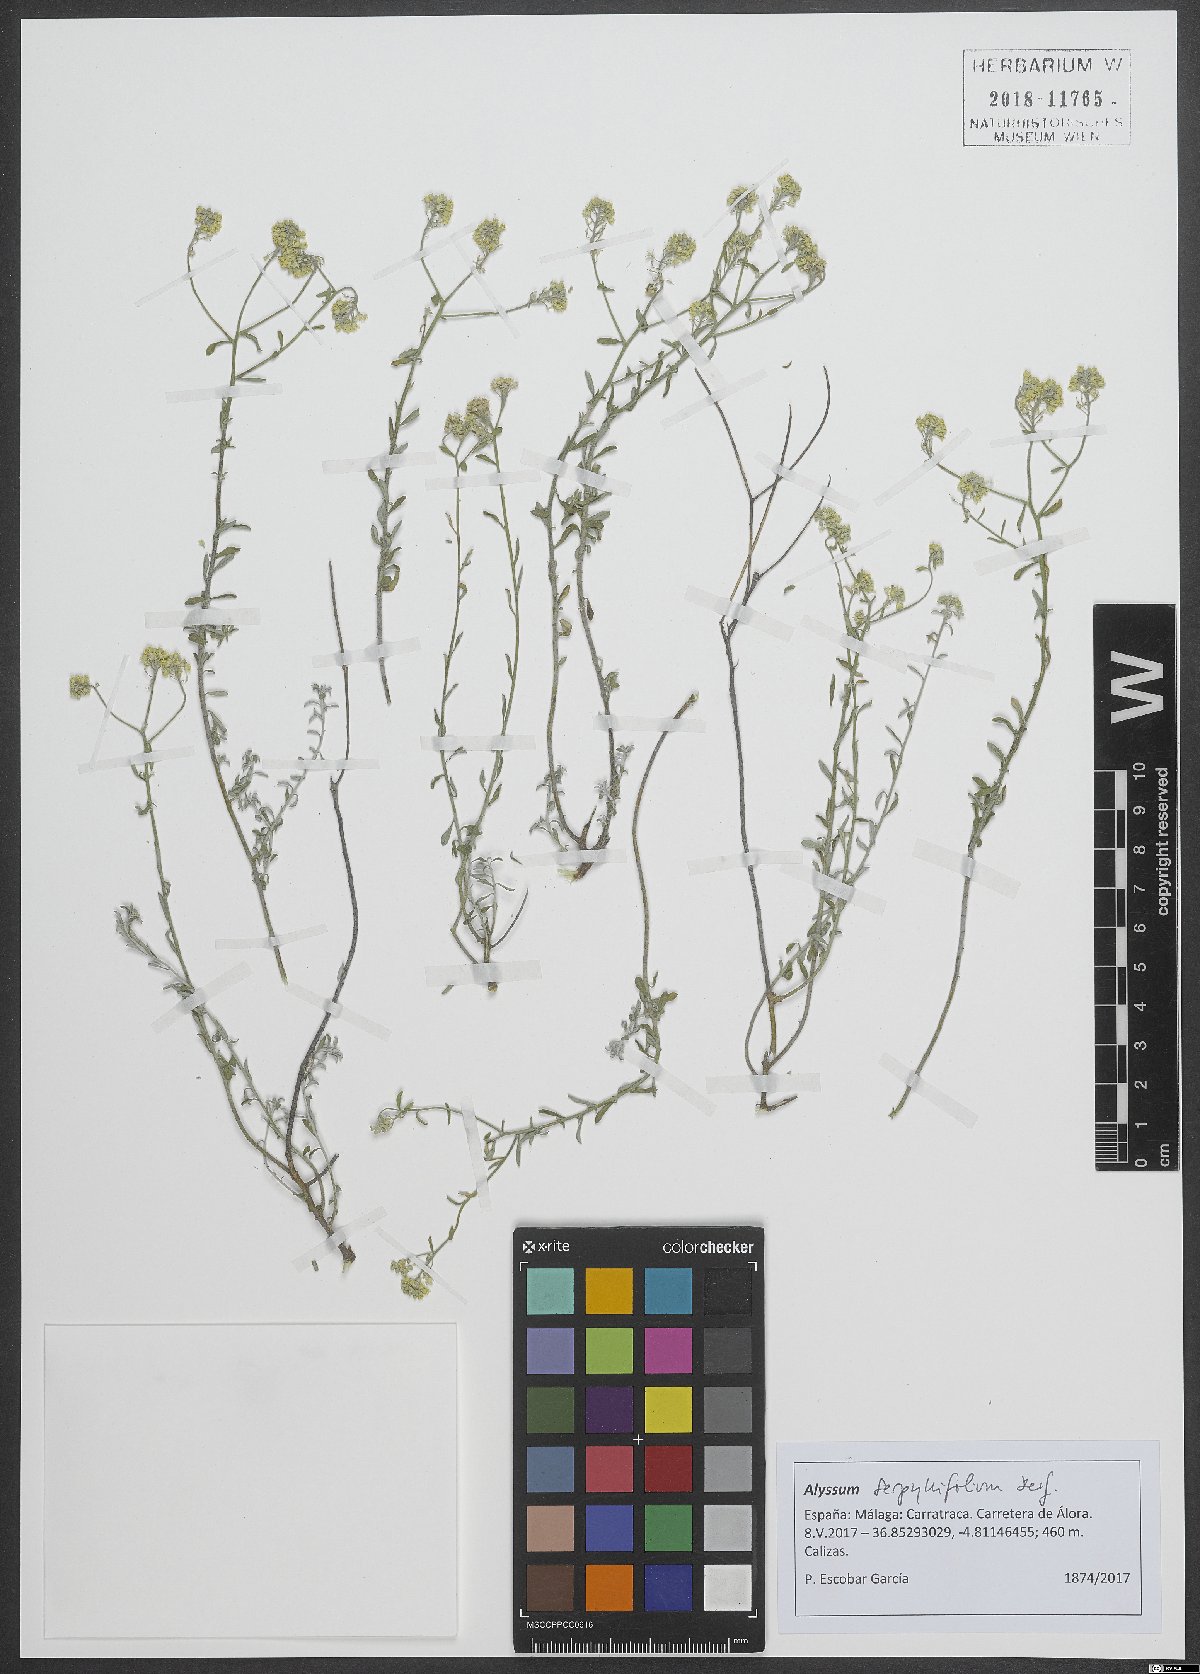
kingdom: Plantae
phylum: Tracheophyta
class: Magnoliopsida
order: Brassicales
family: Brassicaceae
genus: Odontarrhena
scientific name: Odontarrhena serpyllifolia
